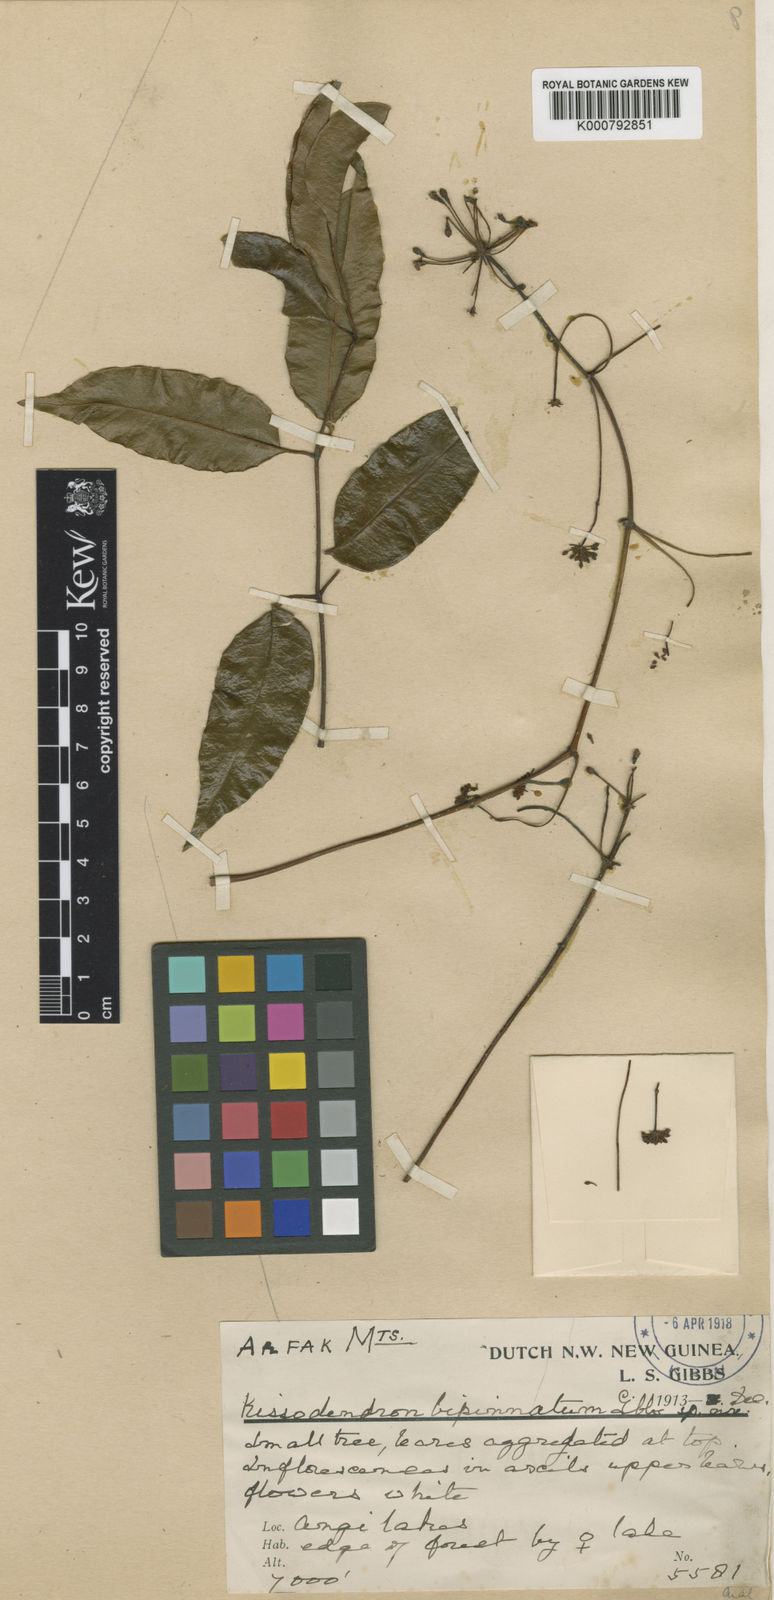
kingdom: Plantae
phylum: Tracheophyta
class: Magnoliopsida
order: Apiales
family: Araliaceae
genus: Polyscias
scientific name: Polyscias bipinnata
